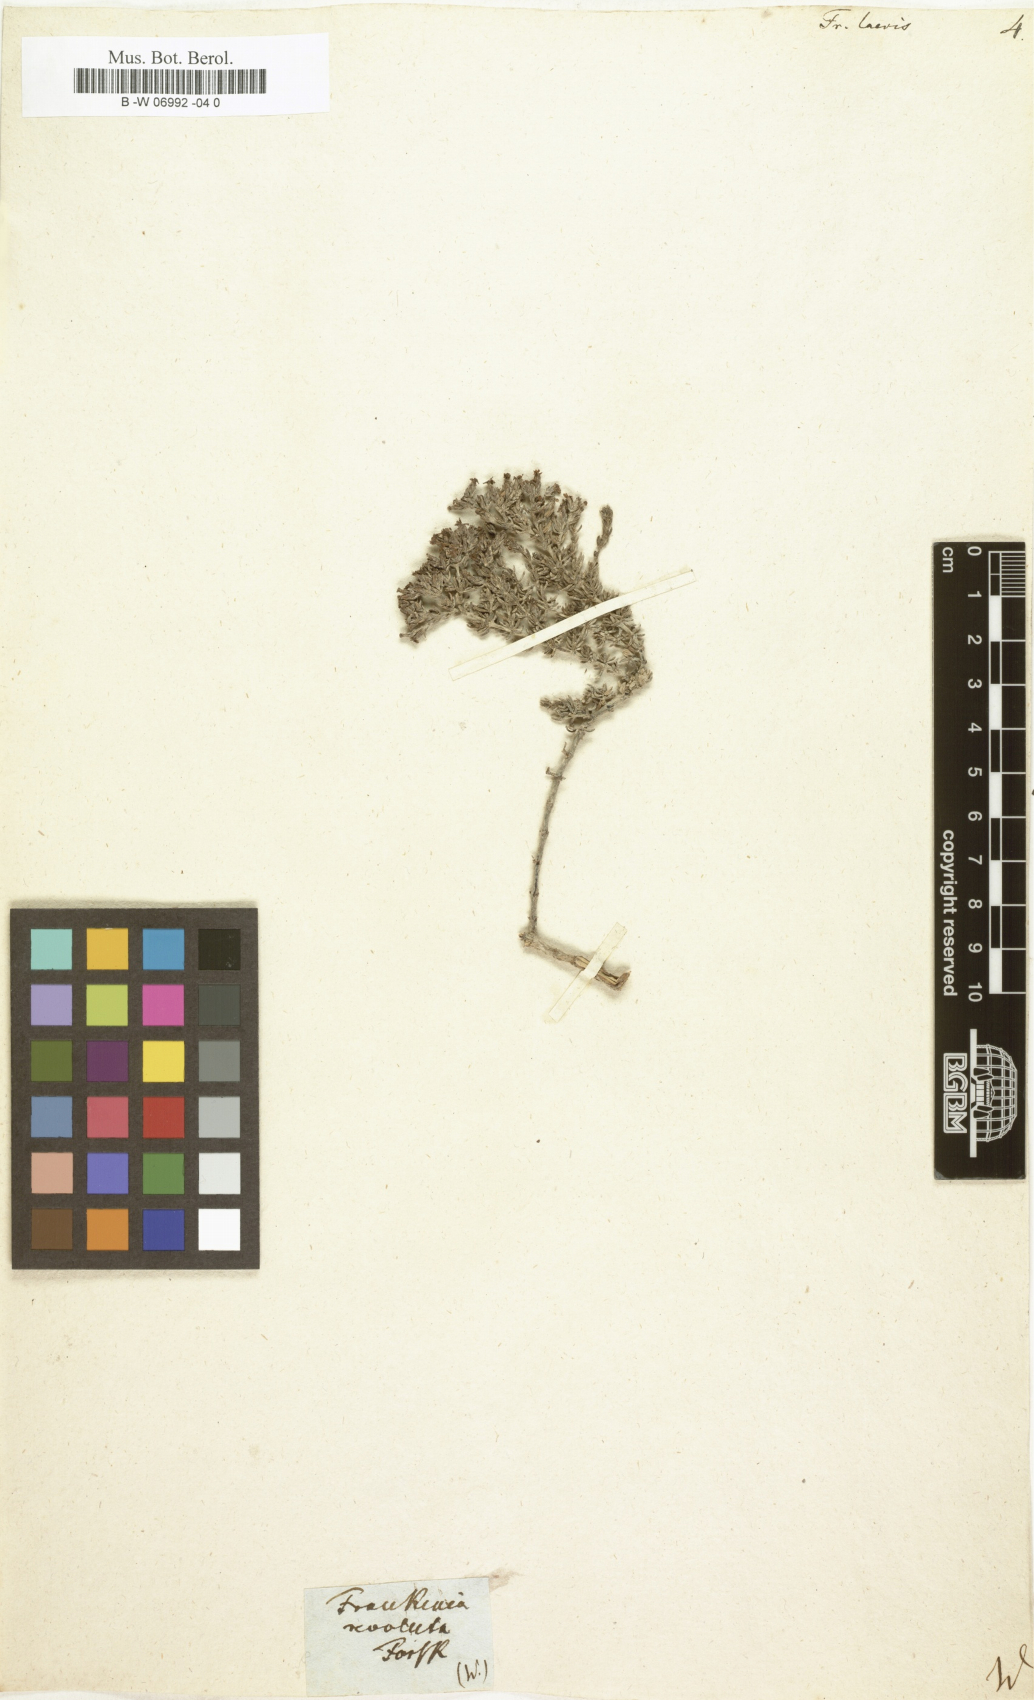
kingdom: Plantae
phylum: Tracheophyta
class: Magnoliopsida
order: Caryophyllales
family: Frankeniaceae
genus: Frankenia
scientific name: Frankenia laevis
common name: Sea-heath
